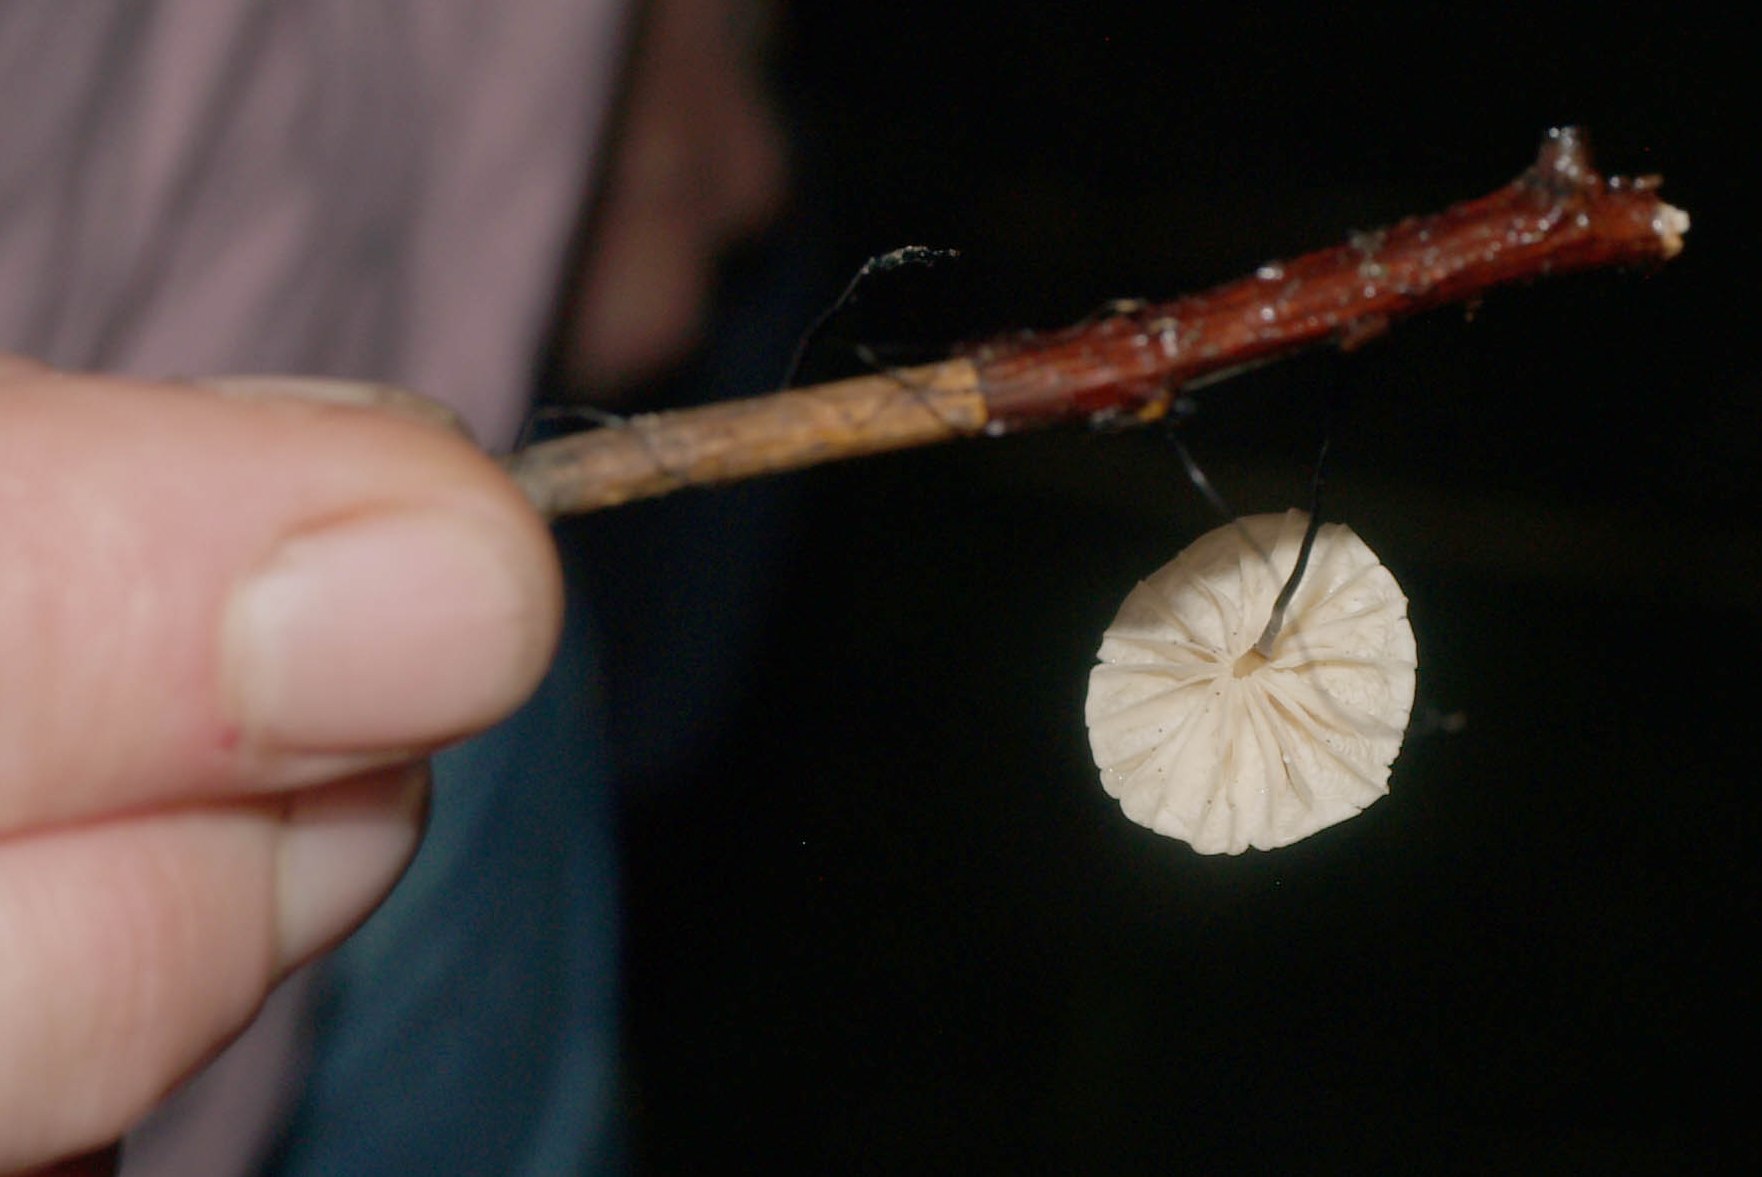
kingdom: Fungi
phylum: Basidiomycota
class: Agaricomycetes
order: Agaricales
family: Marasmiaceae
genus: Marasmius
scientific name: Marasmius rotula
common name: hjul-bruskhat
